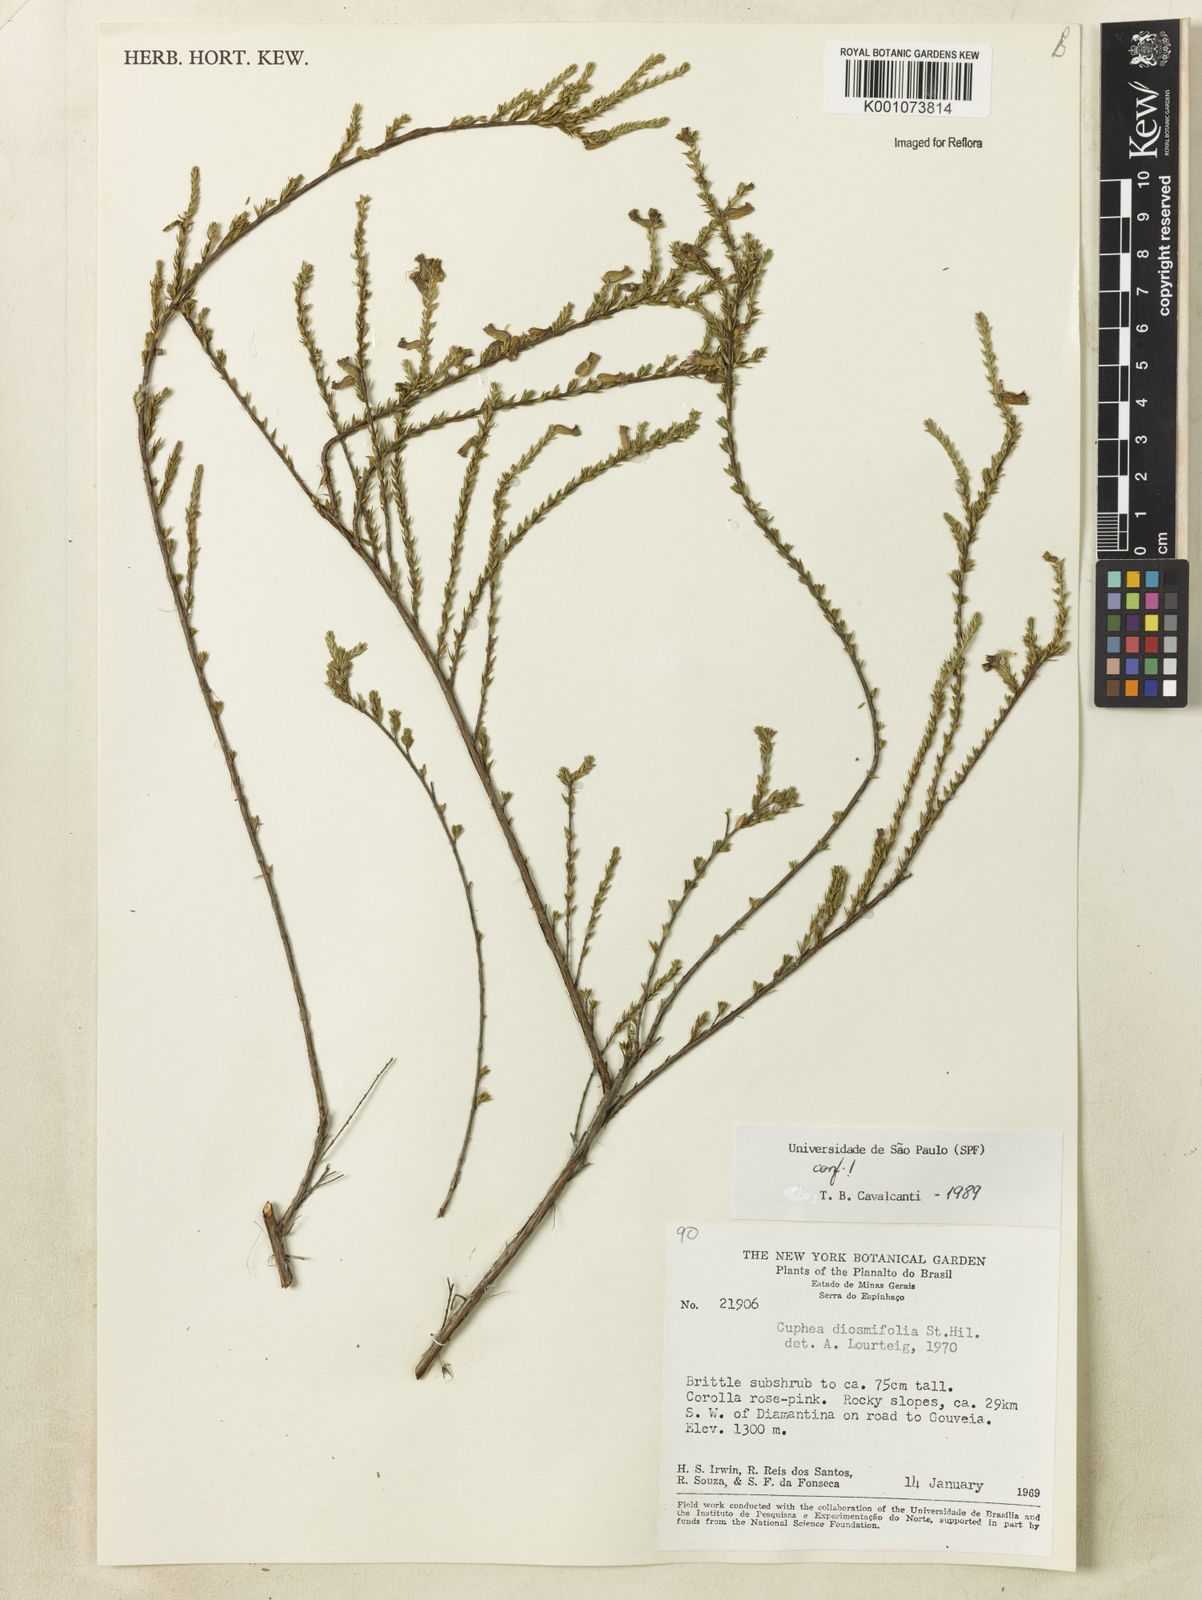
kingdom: Plantae
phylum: Tracheophyta
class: Magnoliopsida
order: Myrtales
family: Lythraceae
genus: Cuphea
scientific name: Cuphea diosmifolia
